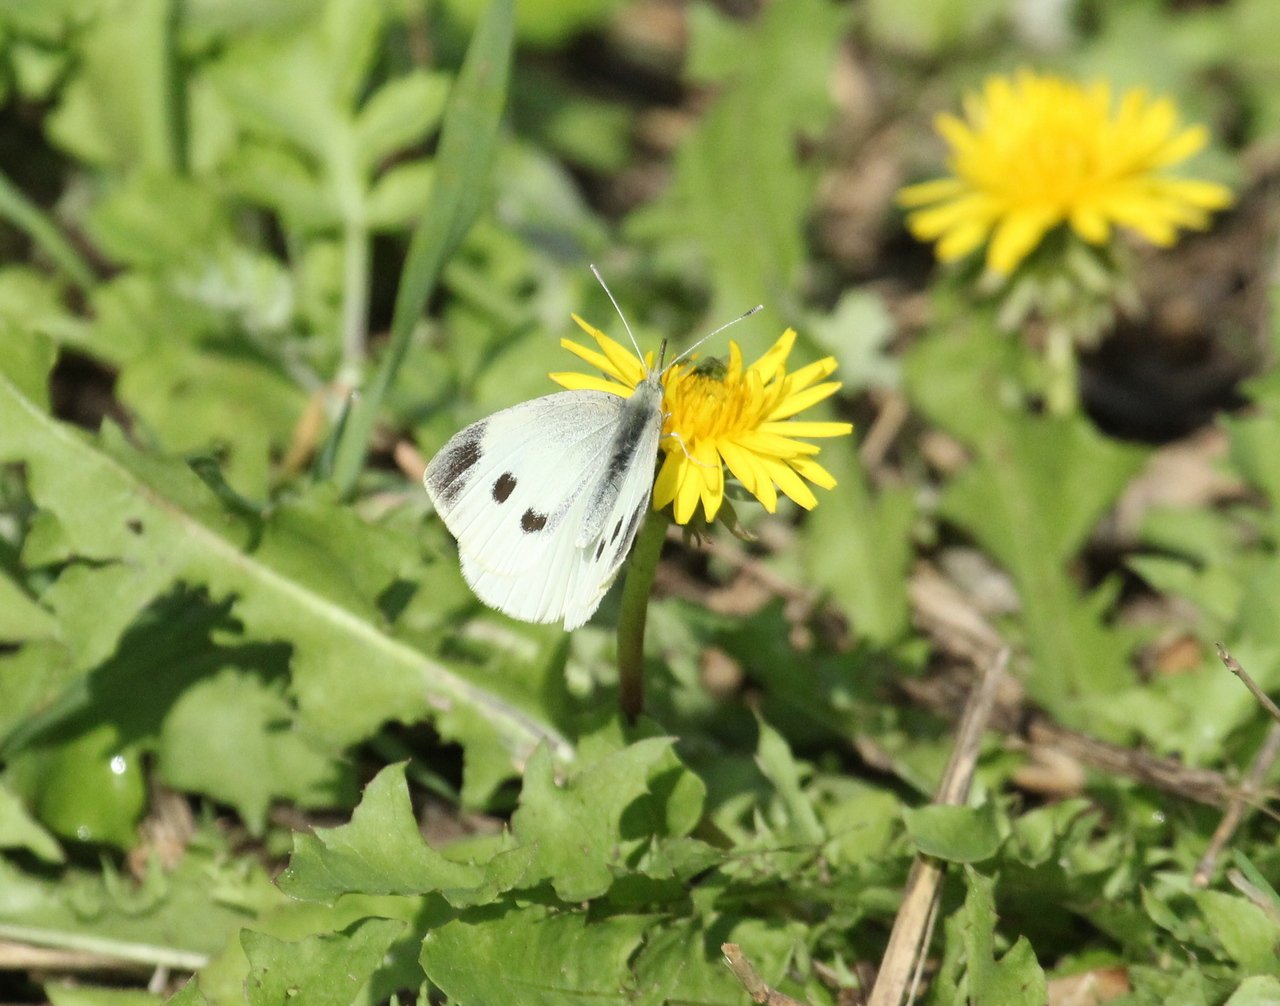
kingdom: Animalia
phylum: Arthropoda
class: Insecta
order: Lepidoptera
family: Pieridae
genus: Pieris
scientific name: Pieris rapae
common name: Cabbage White
